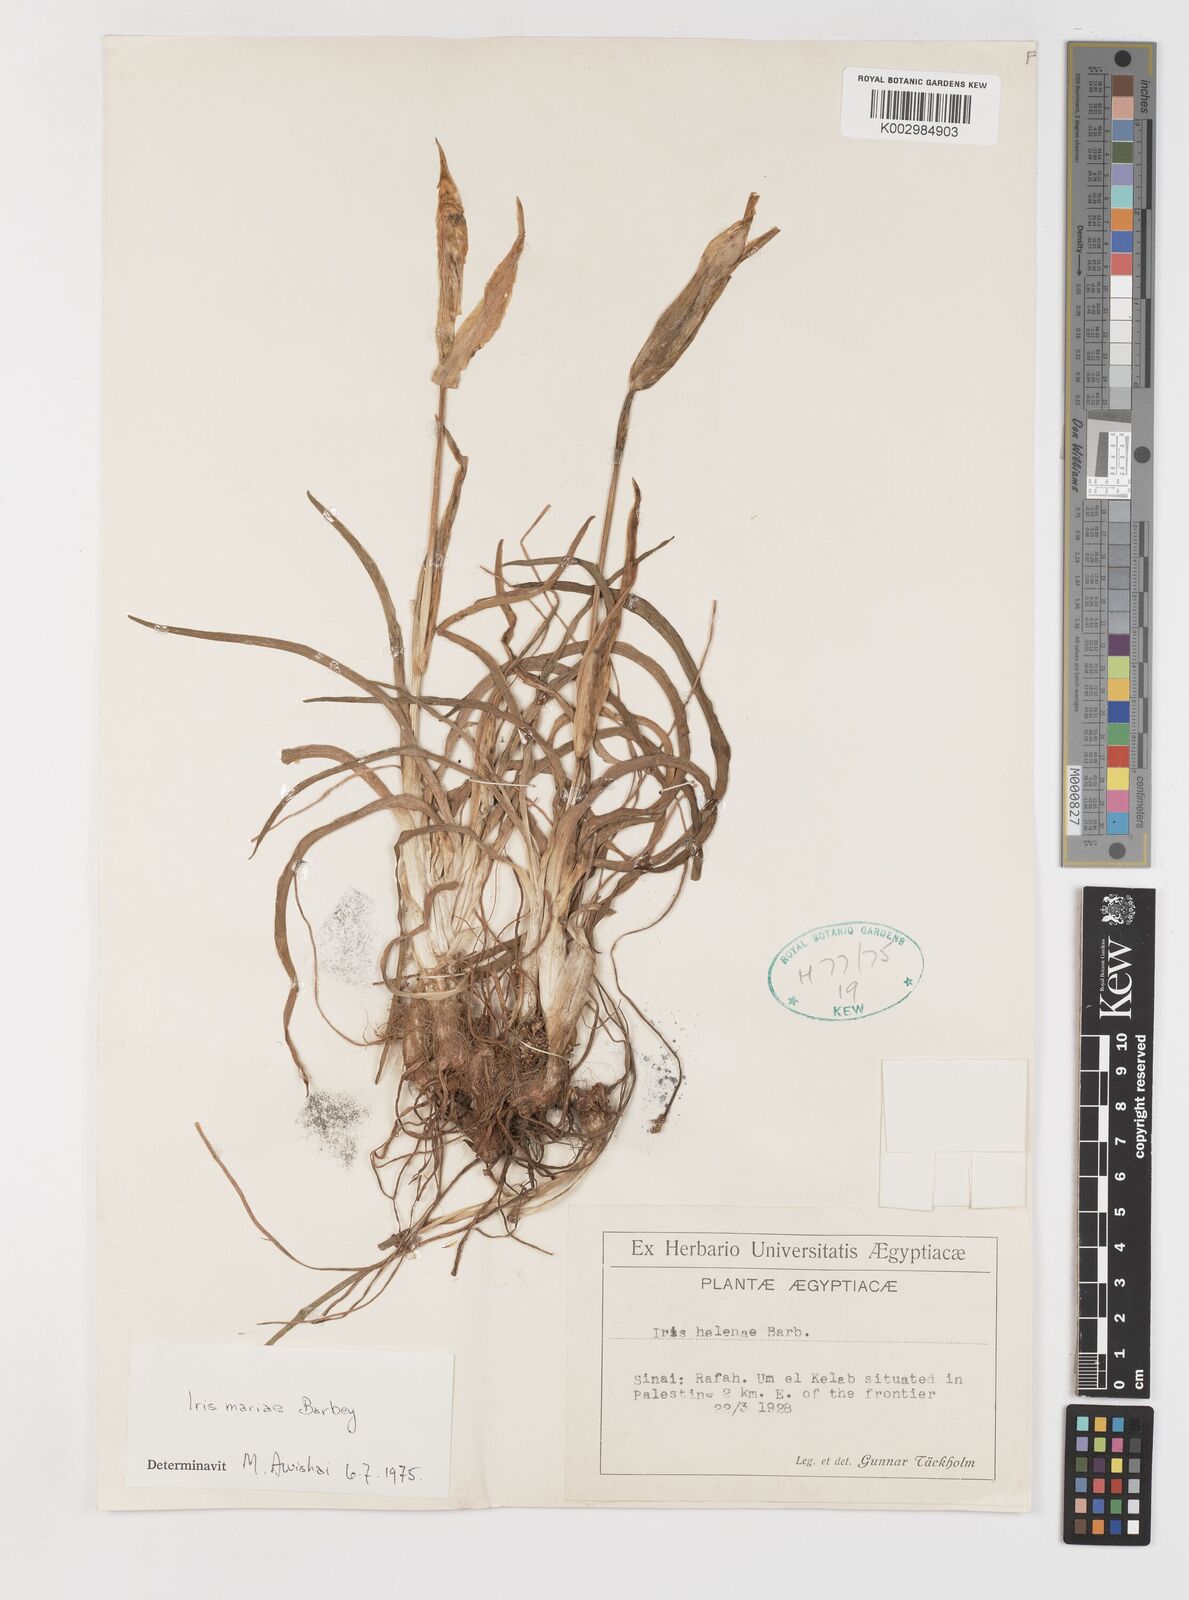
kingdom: Plantae
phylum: Tracheophyta
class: Liliopsida
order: Asparagales
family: Iridaceae
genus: Iris
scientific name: Iris mariae
